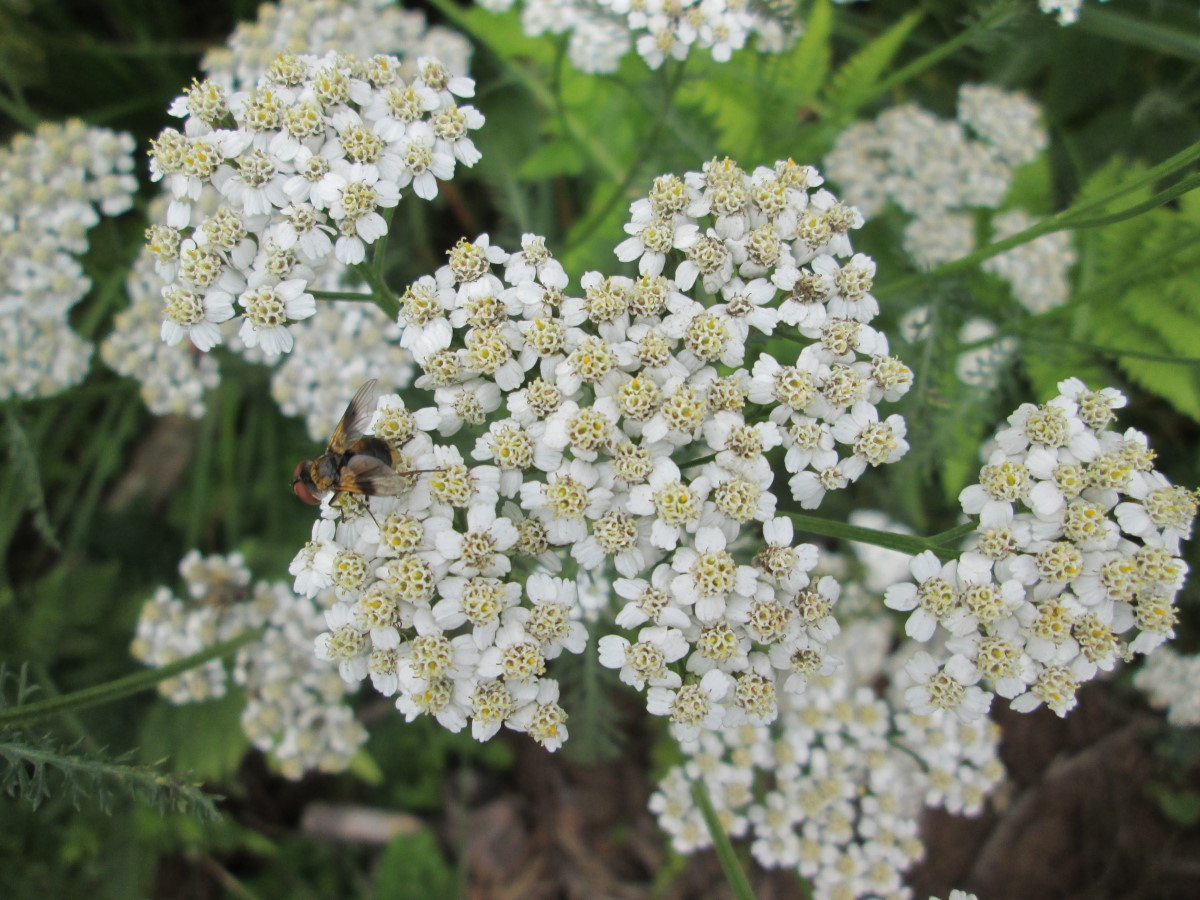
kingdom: Plantae
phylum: Tracheophyta
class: Magnoliopsida
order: Asterales
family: Asteraceae
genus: Achillea
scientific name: Achillea millefolium
